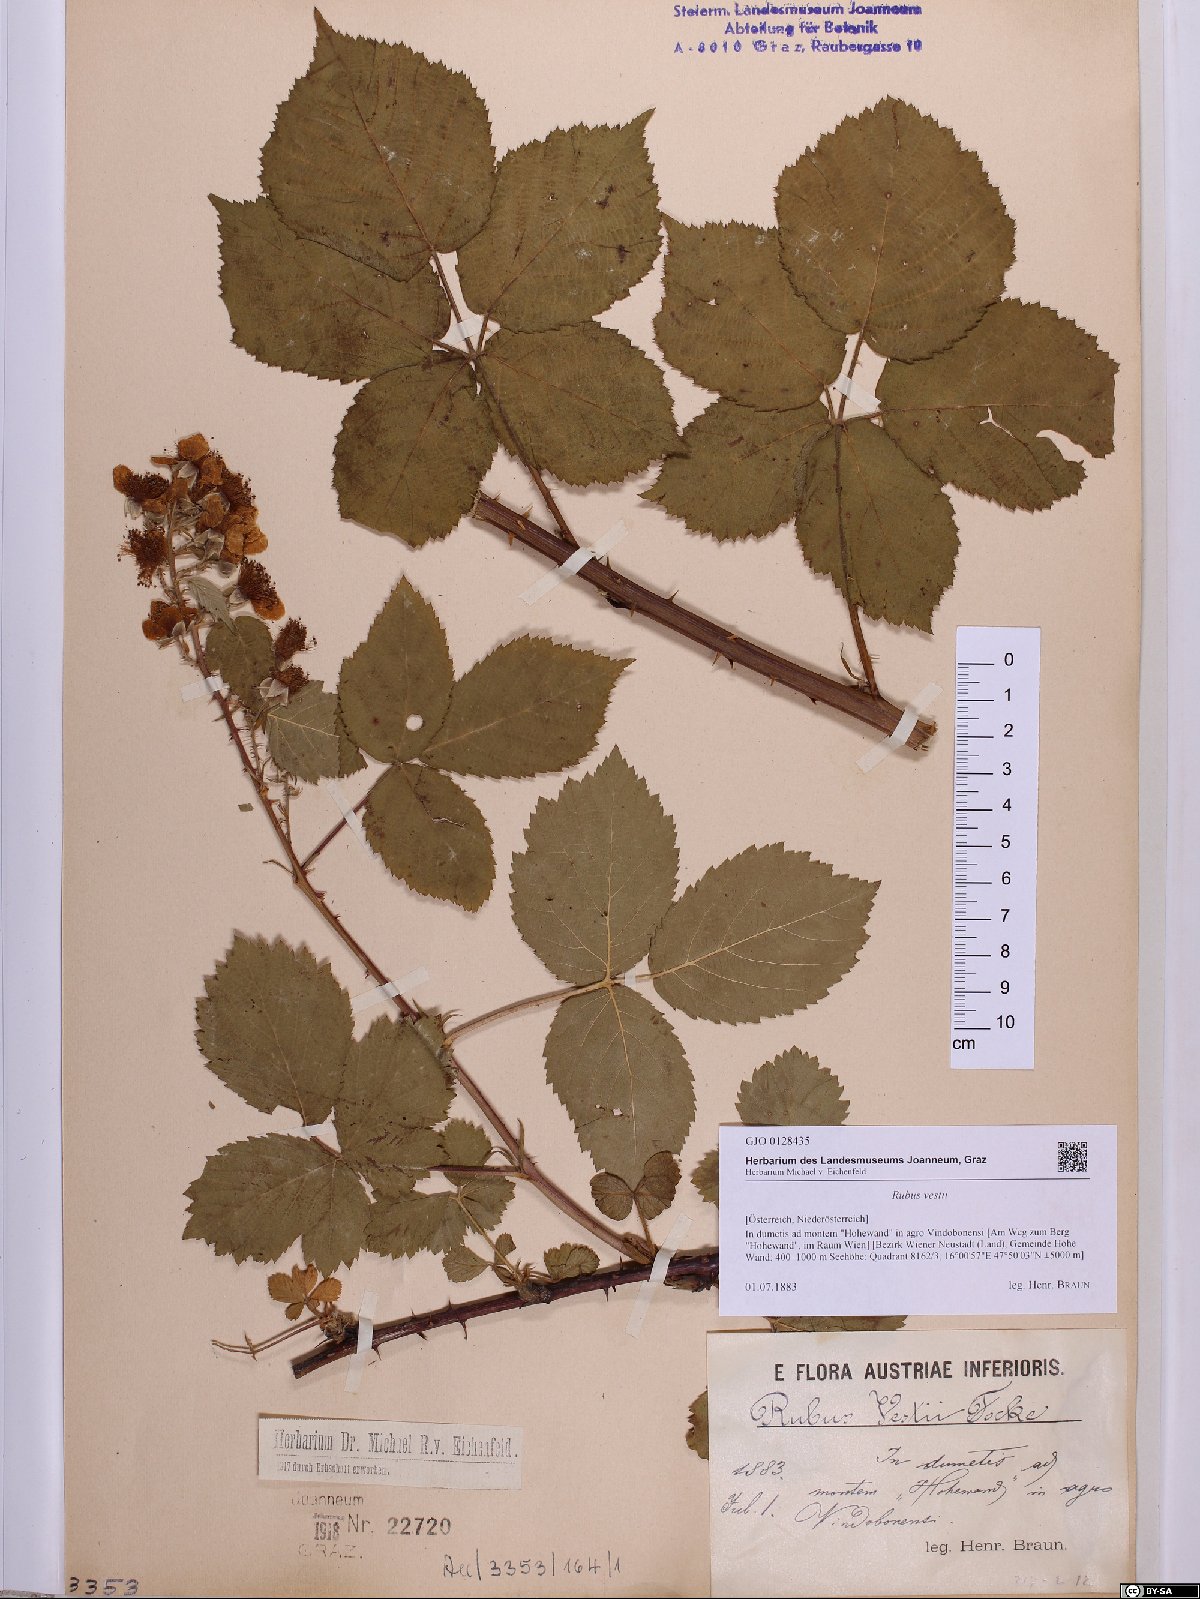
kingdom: Plantae
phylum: Tracheophyta
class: Magnoliopsida
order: Rosales
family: Rosaceae
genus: Rubus
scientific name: Rubus constrictus
